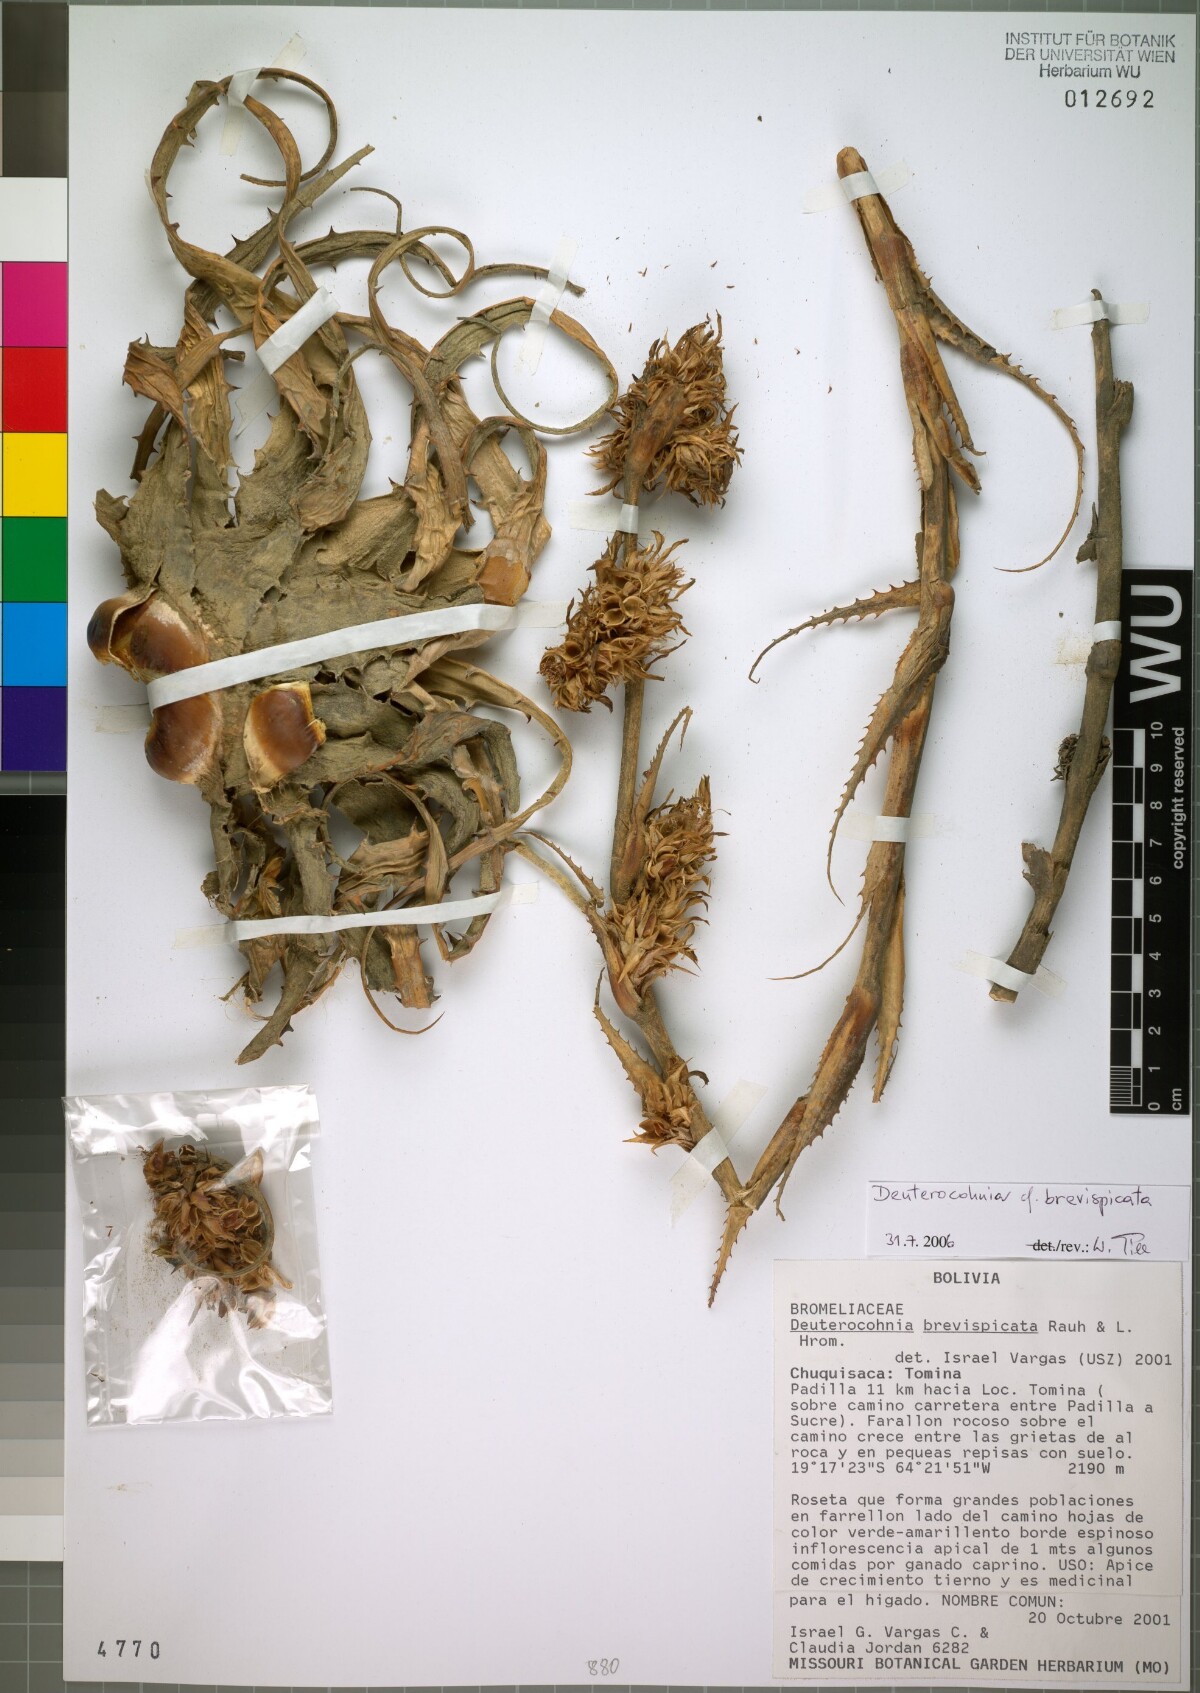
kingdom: Plantae
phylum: Tracheophyta
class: Liliopsida
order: Poales
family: Bromeliaceae
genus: Deuterocohnia
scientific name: Deuterocohnia brevispicata
